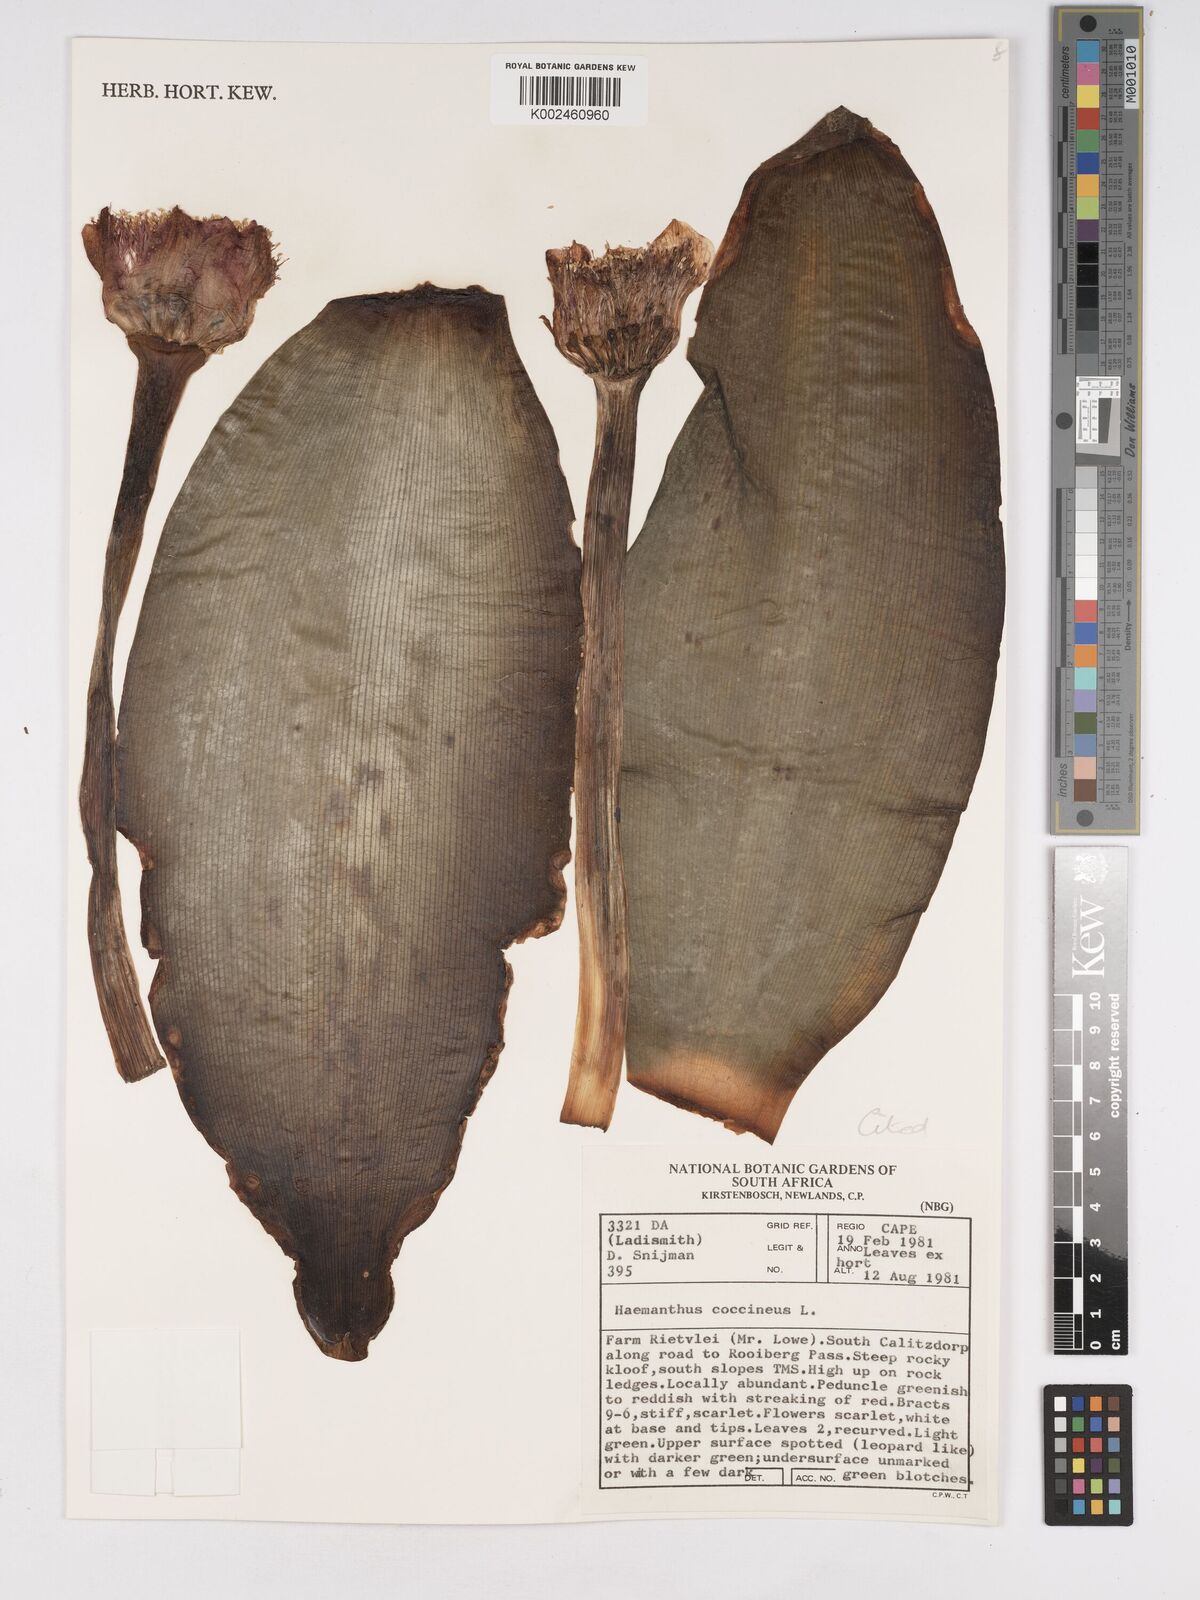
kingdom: Plantae
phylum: Tracheophyta
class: Liliopsida
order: Asparagales
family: Amaryllidaceae
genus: Haemanthus
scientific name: Haemanthus coccineus
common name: Cape-tulip
